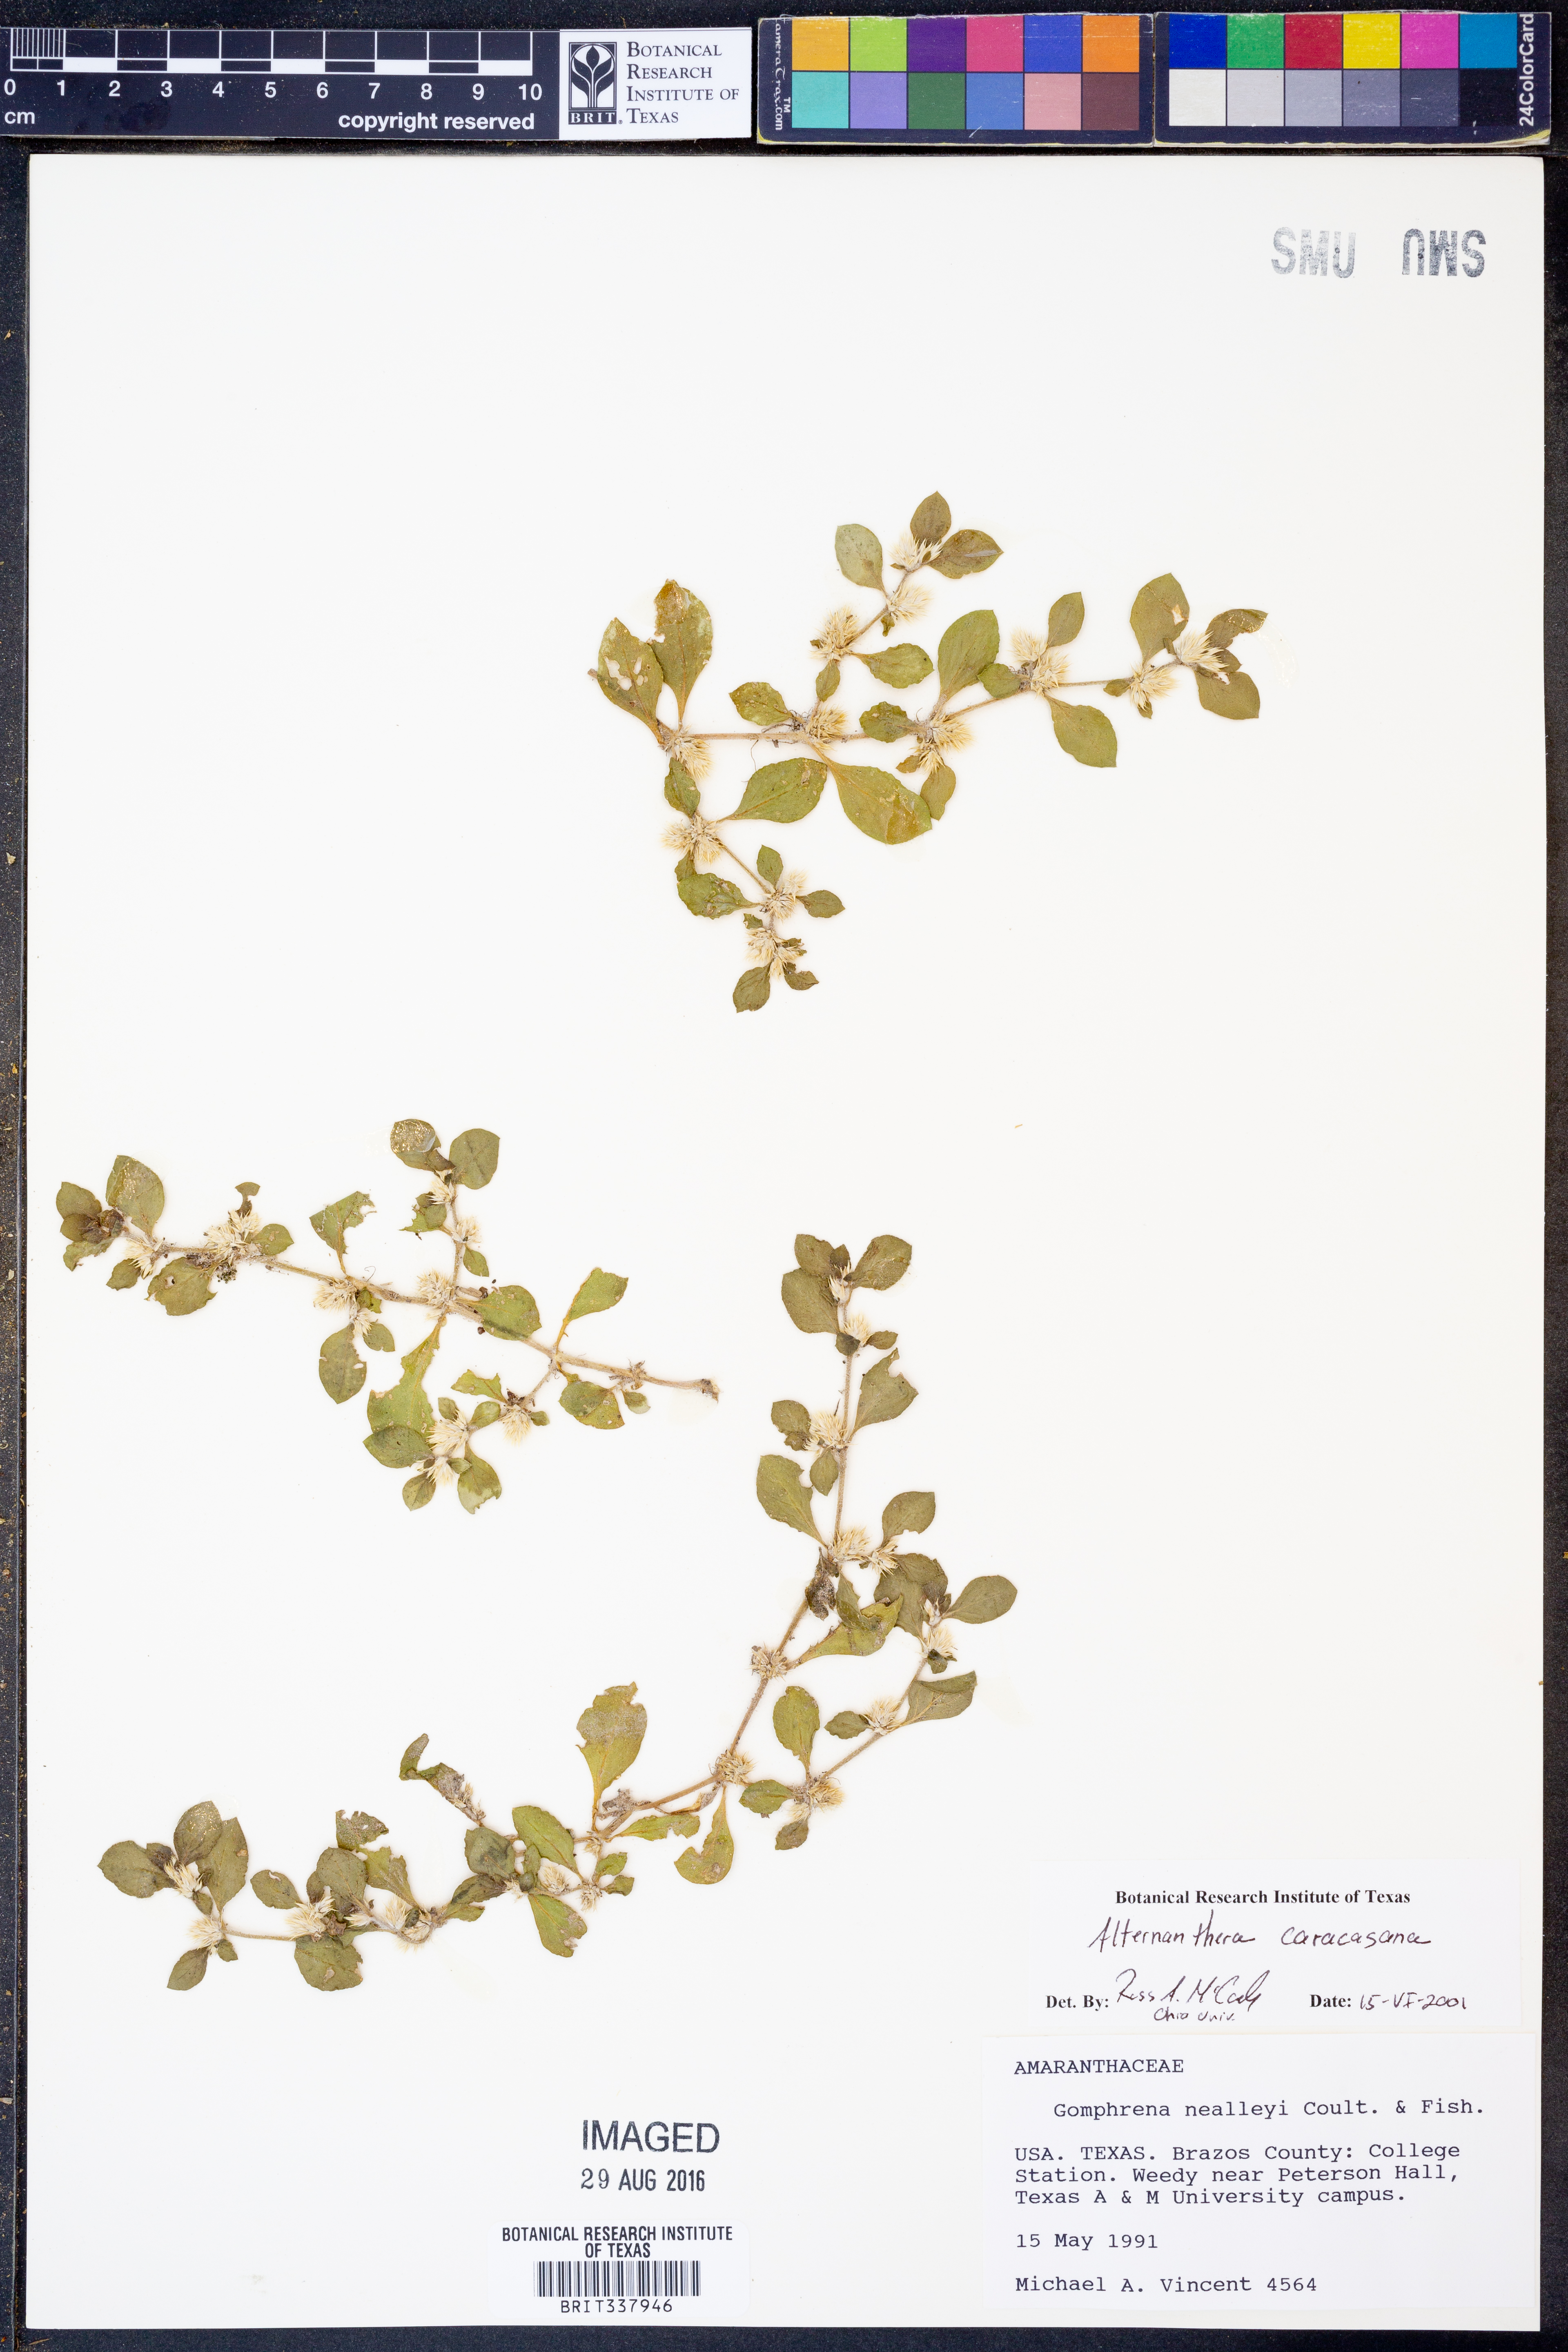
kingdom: Plantae
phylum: Tracheophyta
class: Magnoliopsida
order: Caryophyllales
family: Amaranthaceae
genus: Alternanthera
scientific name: Alternanthera caracasana
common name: Washerwoman
